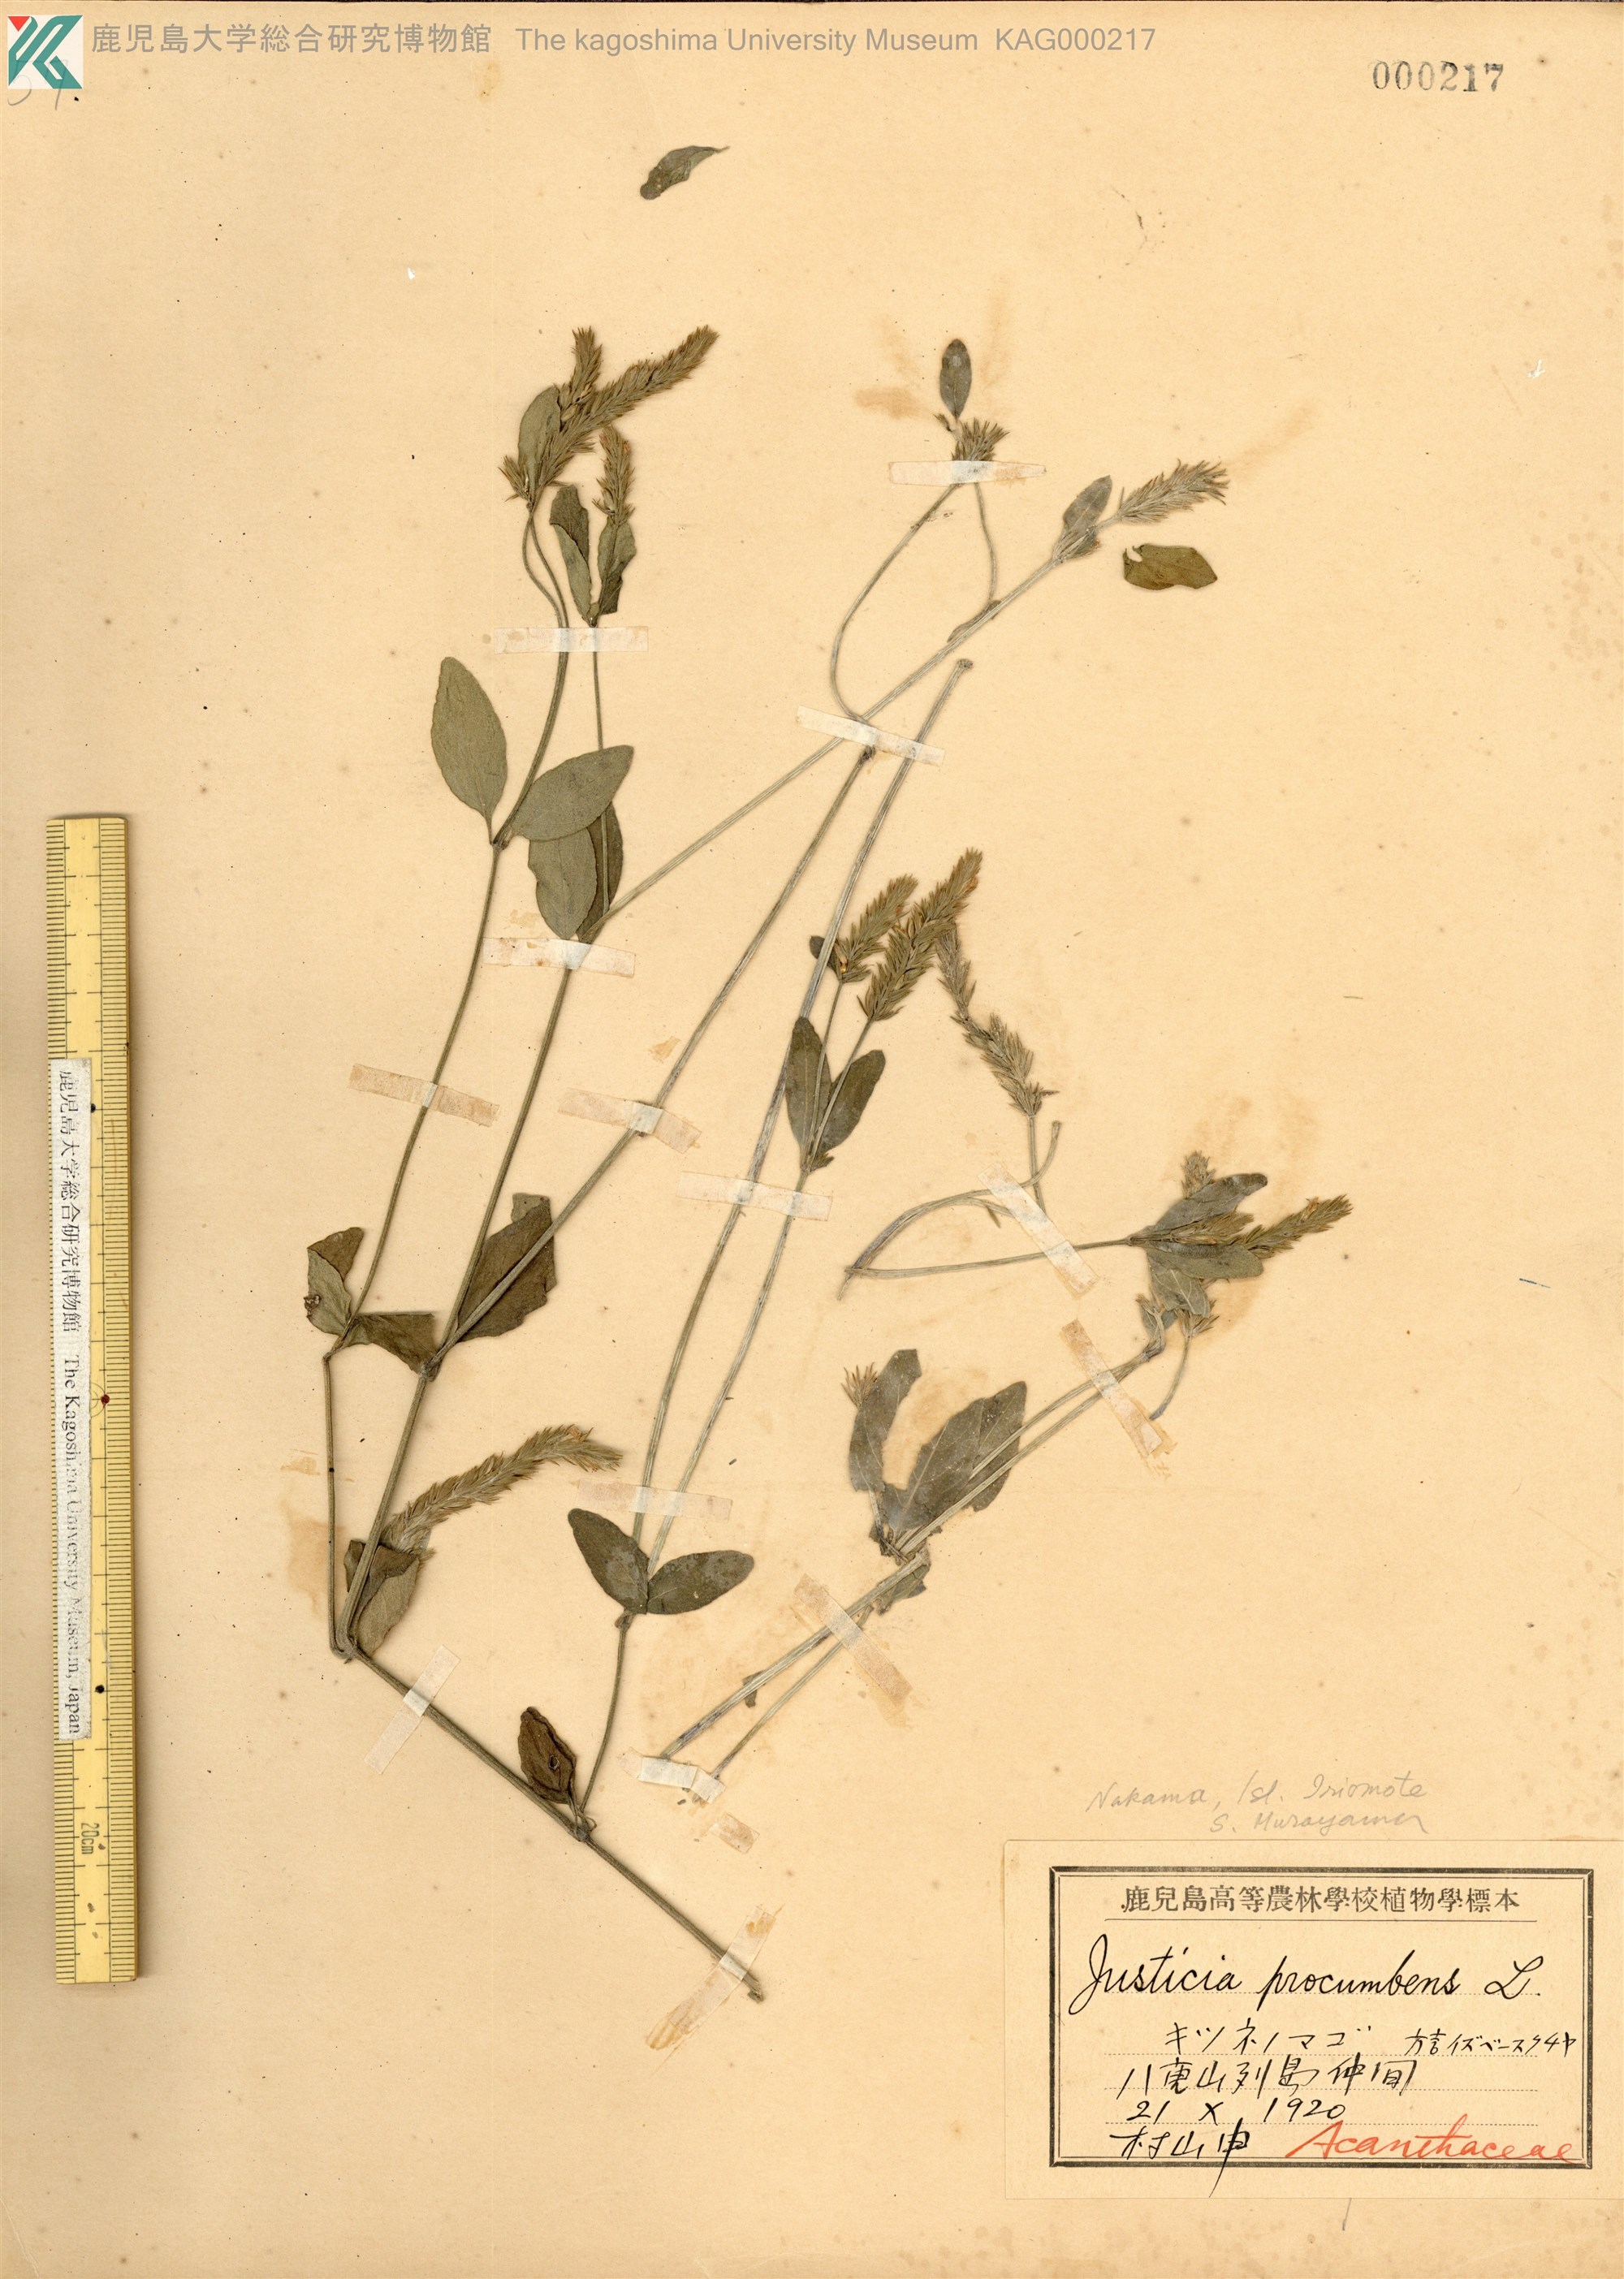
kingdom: Plantae
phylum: Tracheophyta
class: Magnoliopsida
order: Lamiales
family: Acanthaceae
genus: Rostellularia
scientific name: Rostellularia procumbens
